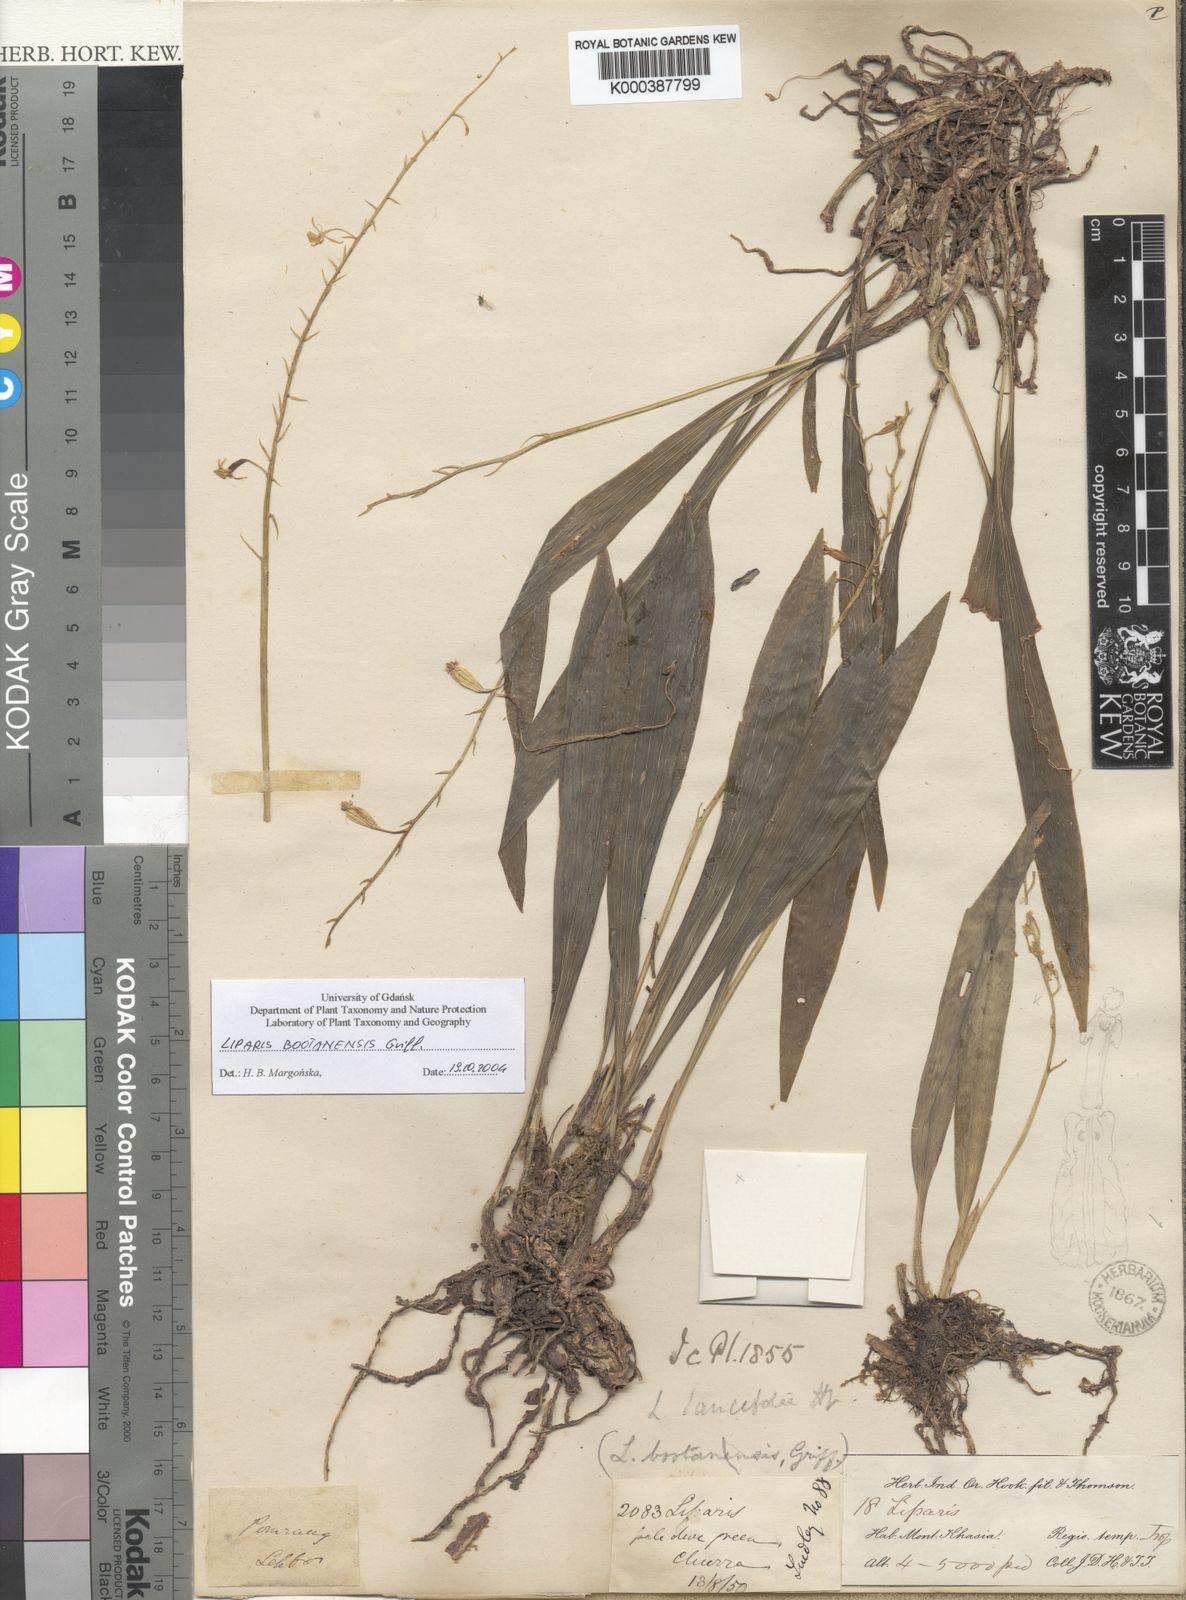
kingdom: Plantae
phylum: Tracheophyta
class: Liliopsida
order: Asparagales
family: Orchidaceae
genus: Liparis
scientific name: Liparis bootanensis
